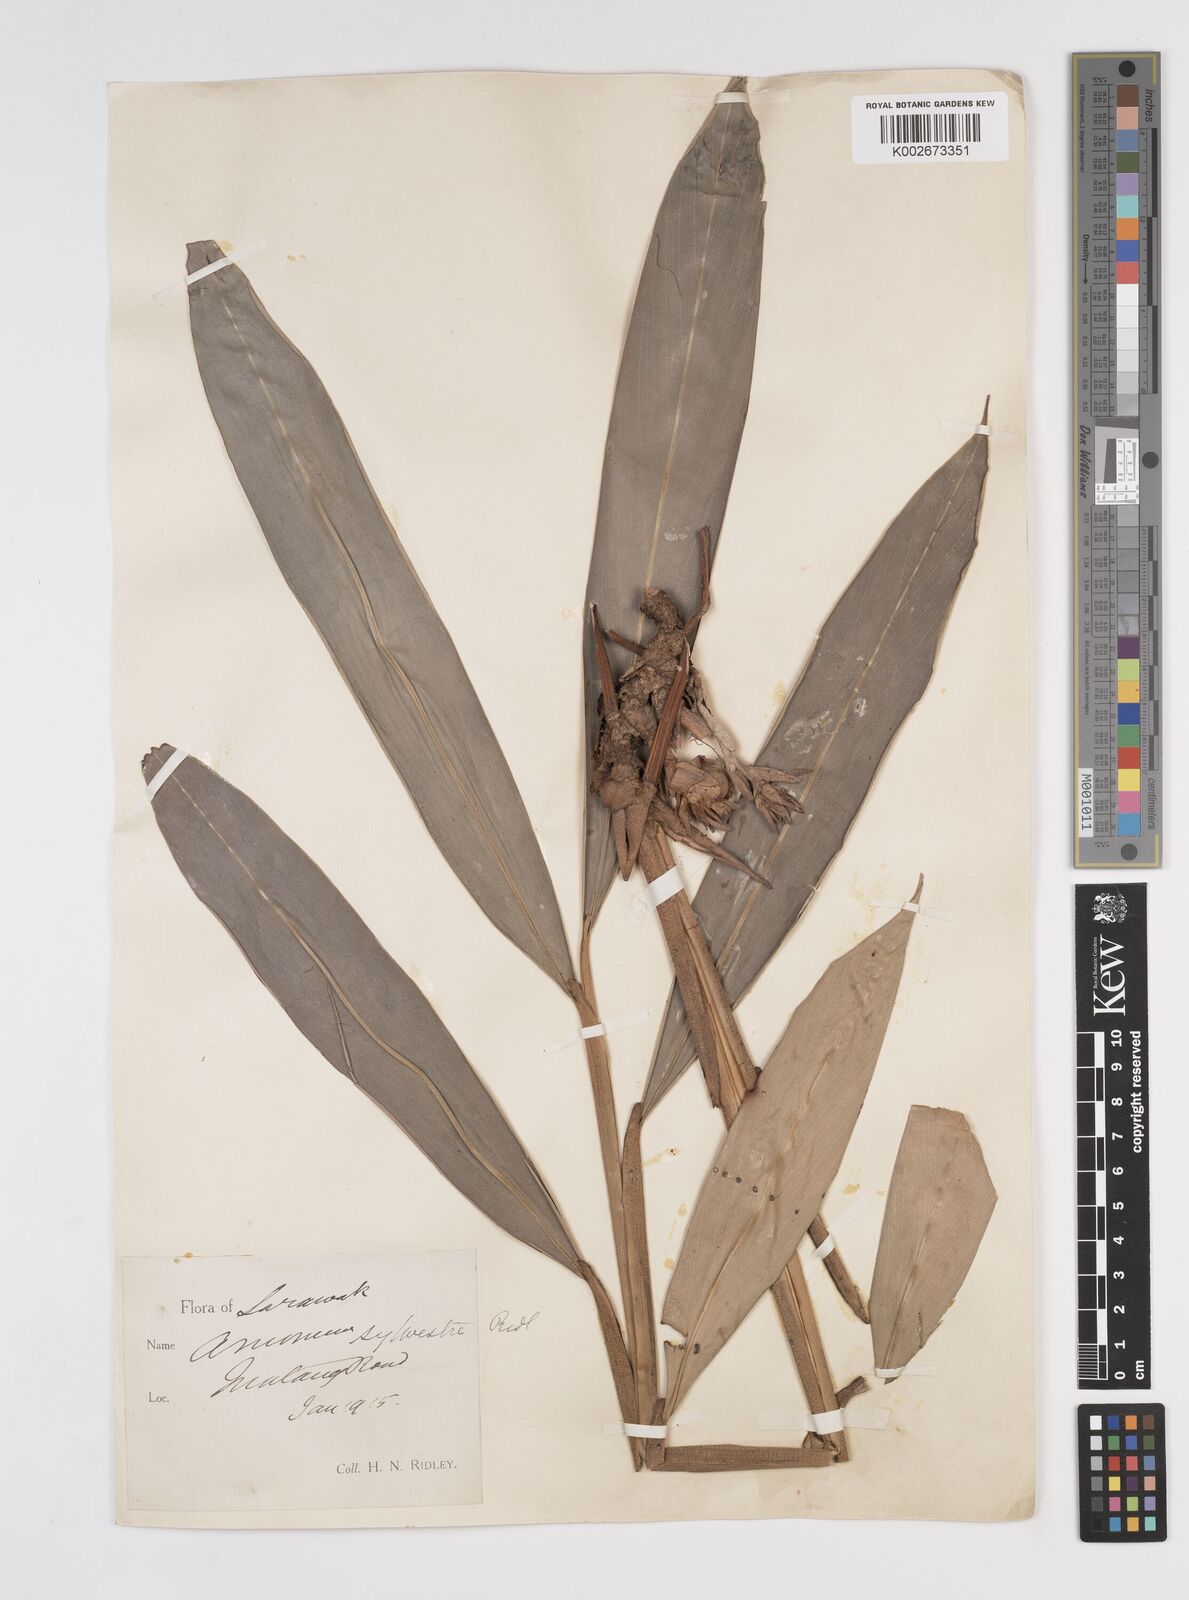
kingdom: Plantae
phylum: Tracheophyta
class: Liliopsida
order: Zingiberales
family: Zingiberaceae
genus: Amomum
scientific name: Amomum
